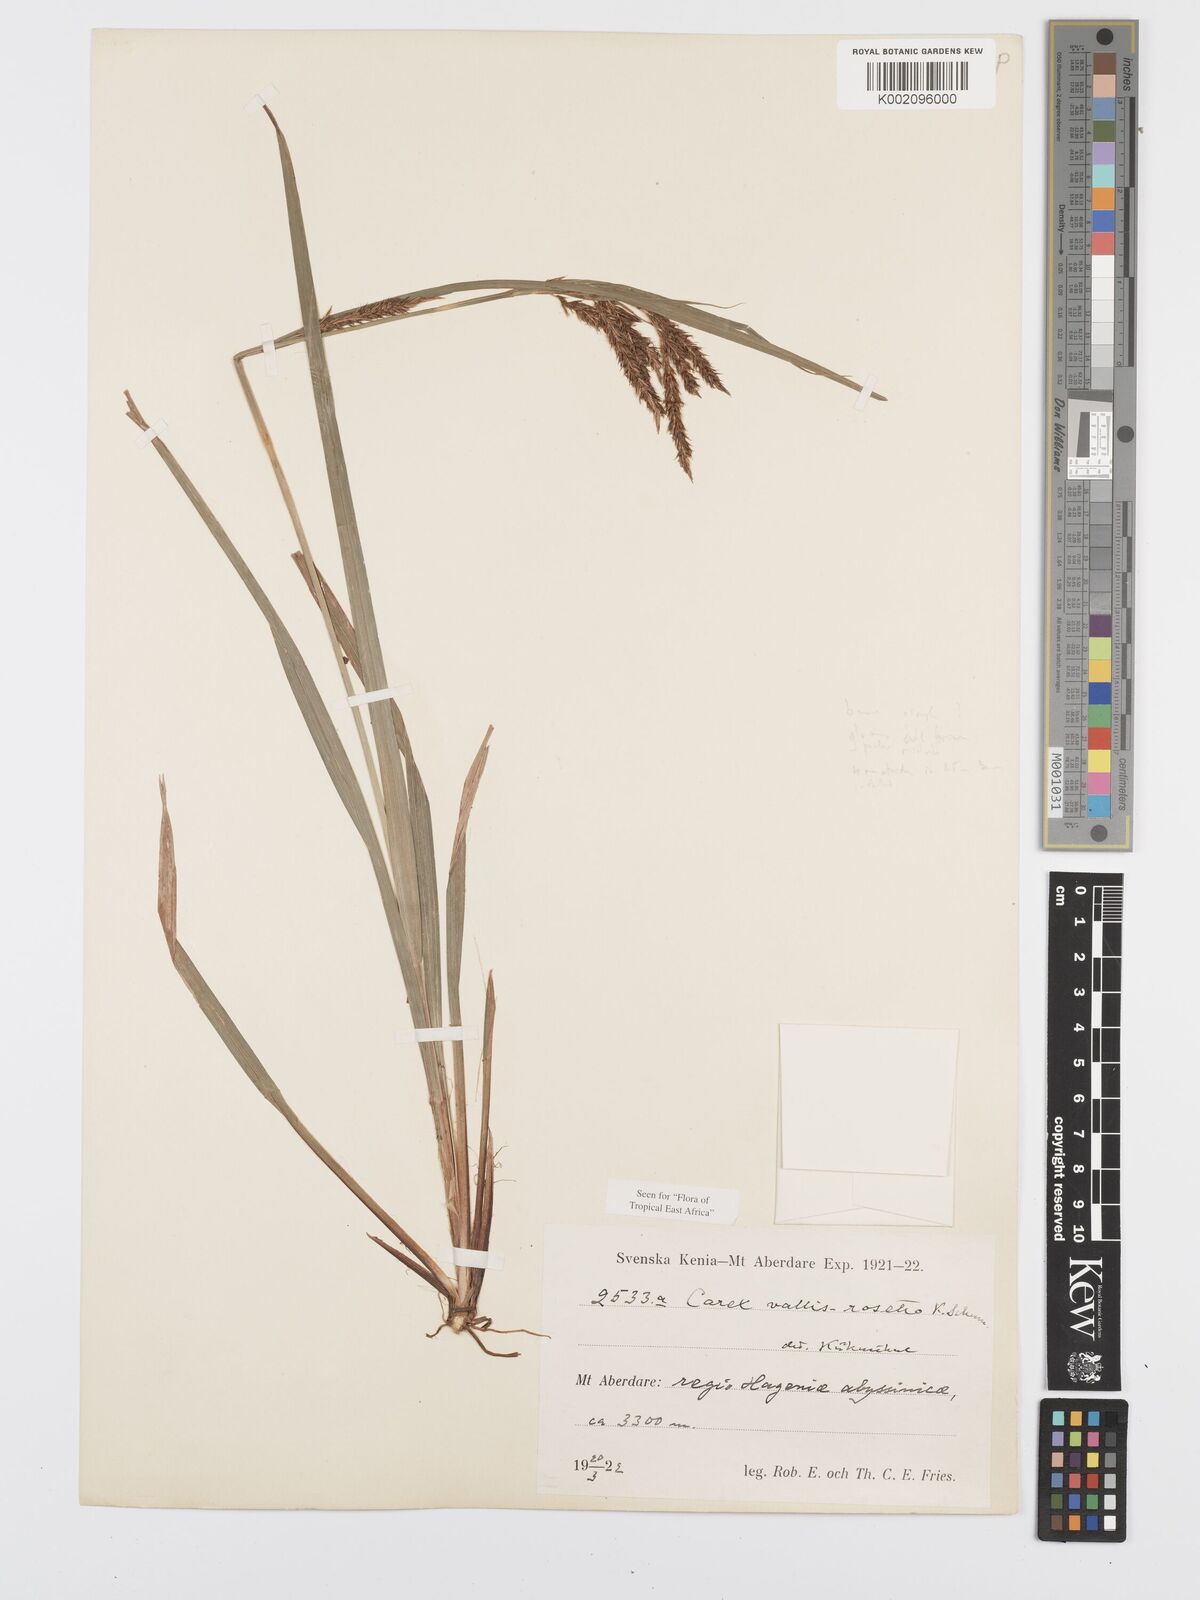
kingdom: Plantae
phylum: Tracheophyta
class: Liliopsida
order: Poales
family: Cyperaceae
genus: Carex
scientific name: Carex vallis-rosetto
